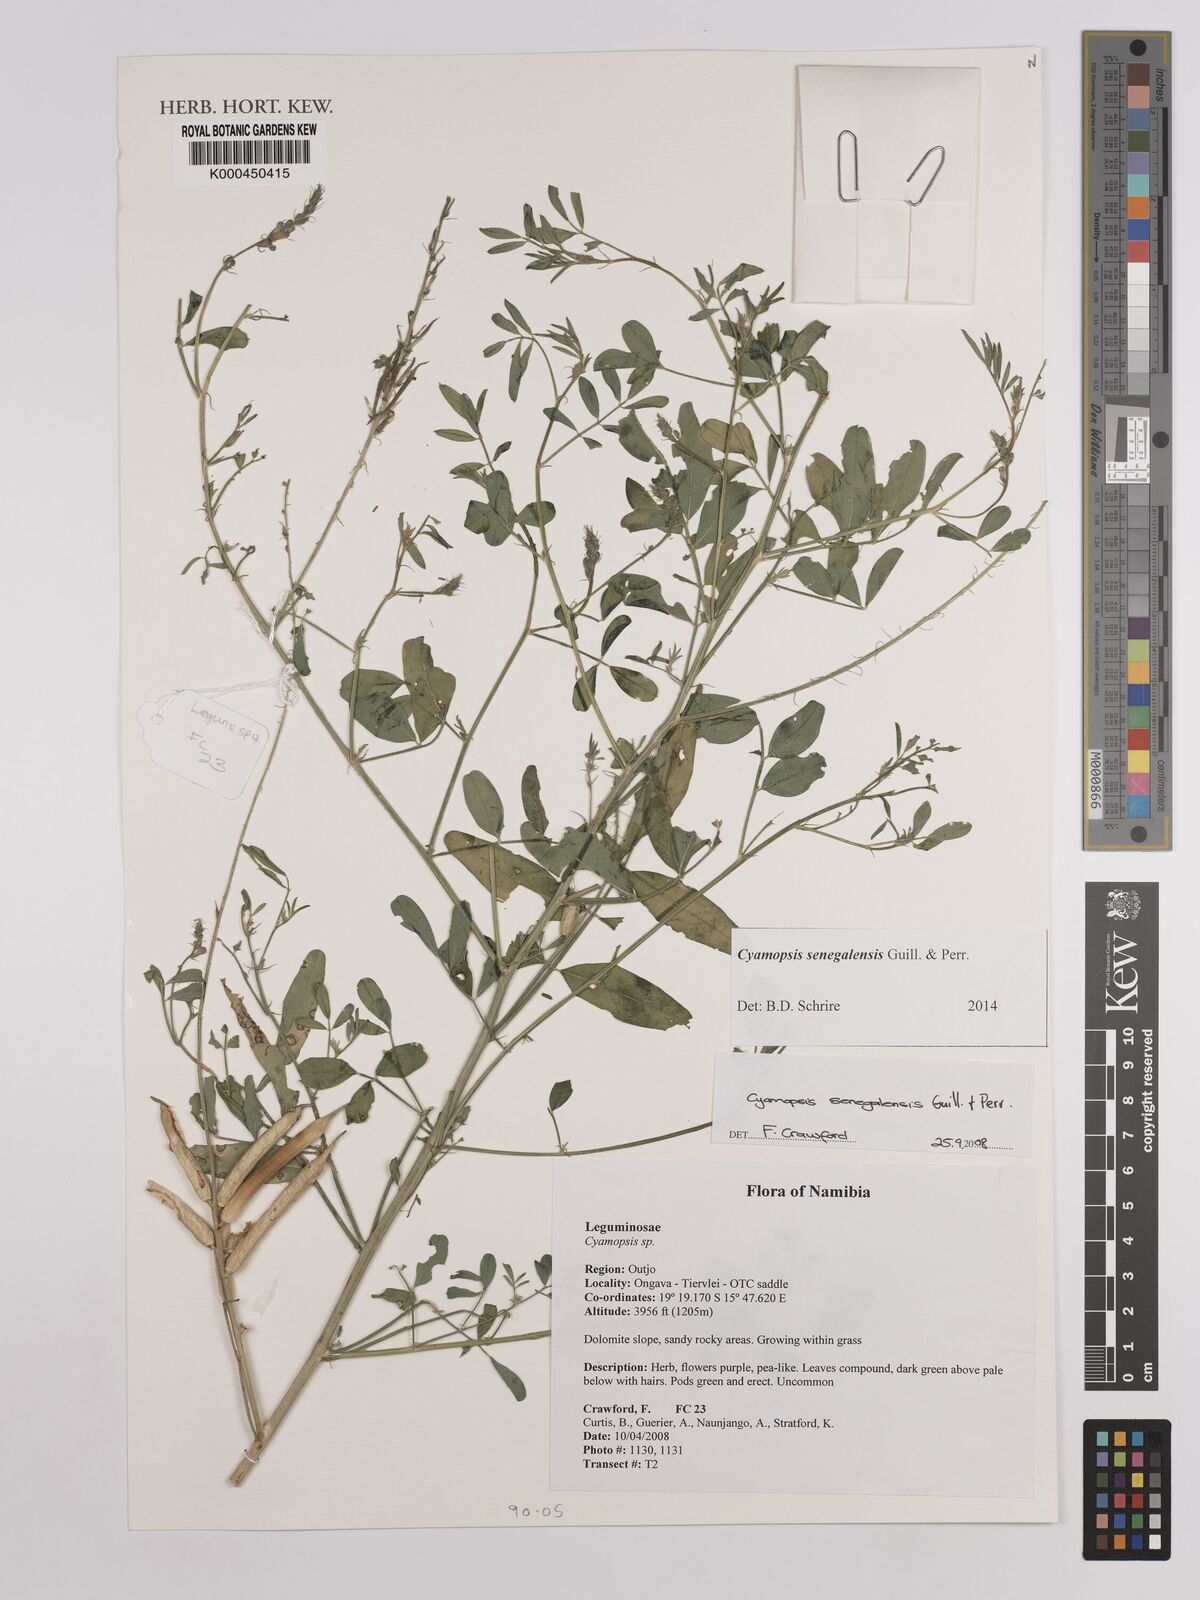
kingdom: Plantae
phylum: Tracheophyta
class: Magnoliopsida
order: Fabales
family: Fabaceae
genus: Cyamopsis
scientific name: Cyamopsis senegalensis
